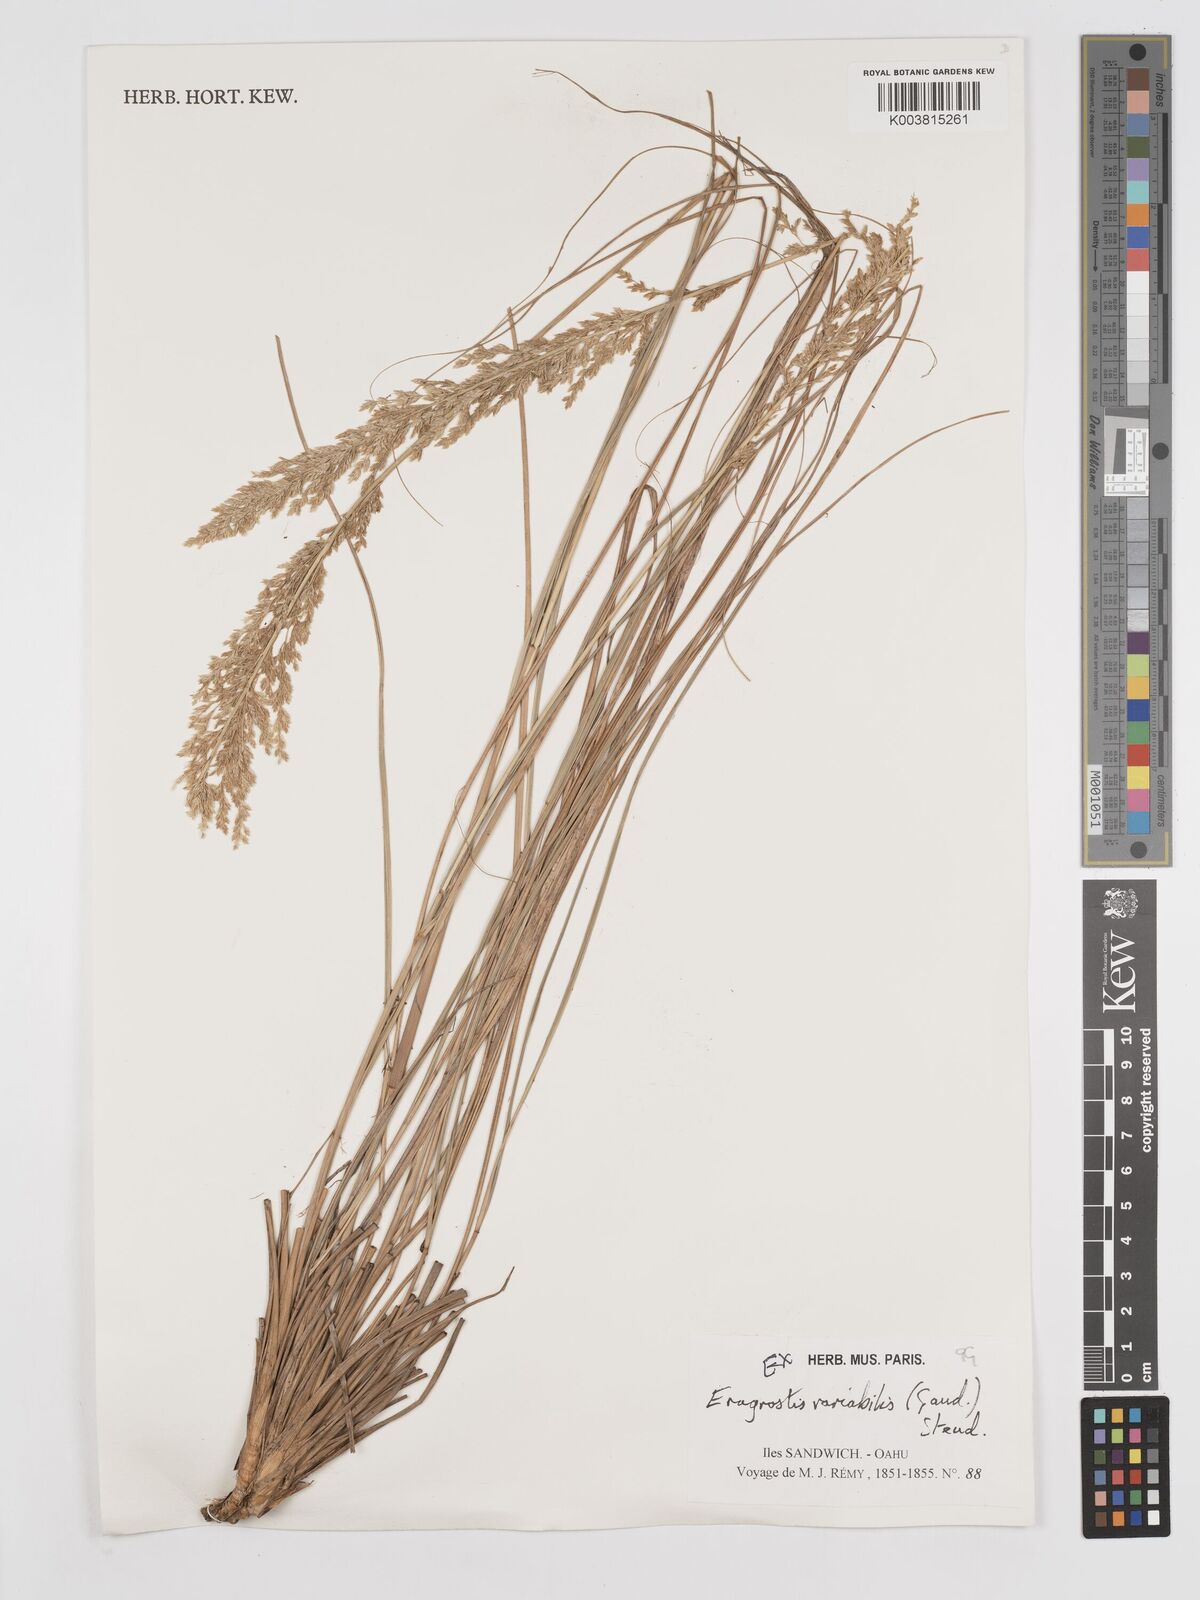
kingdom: Plantae
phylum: Tracheophyta
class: Liliopsida
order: Poales
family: Poaceae
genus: Eragrostis
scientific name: Eragrostis variabilis
